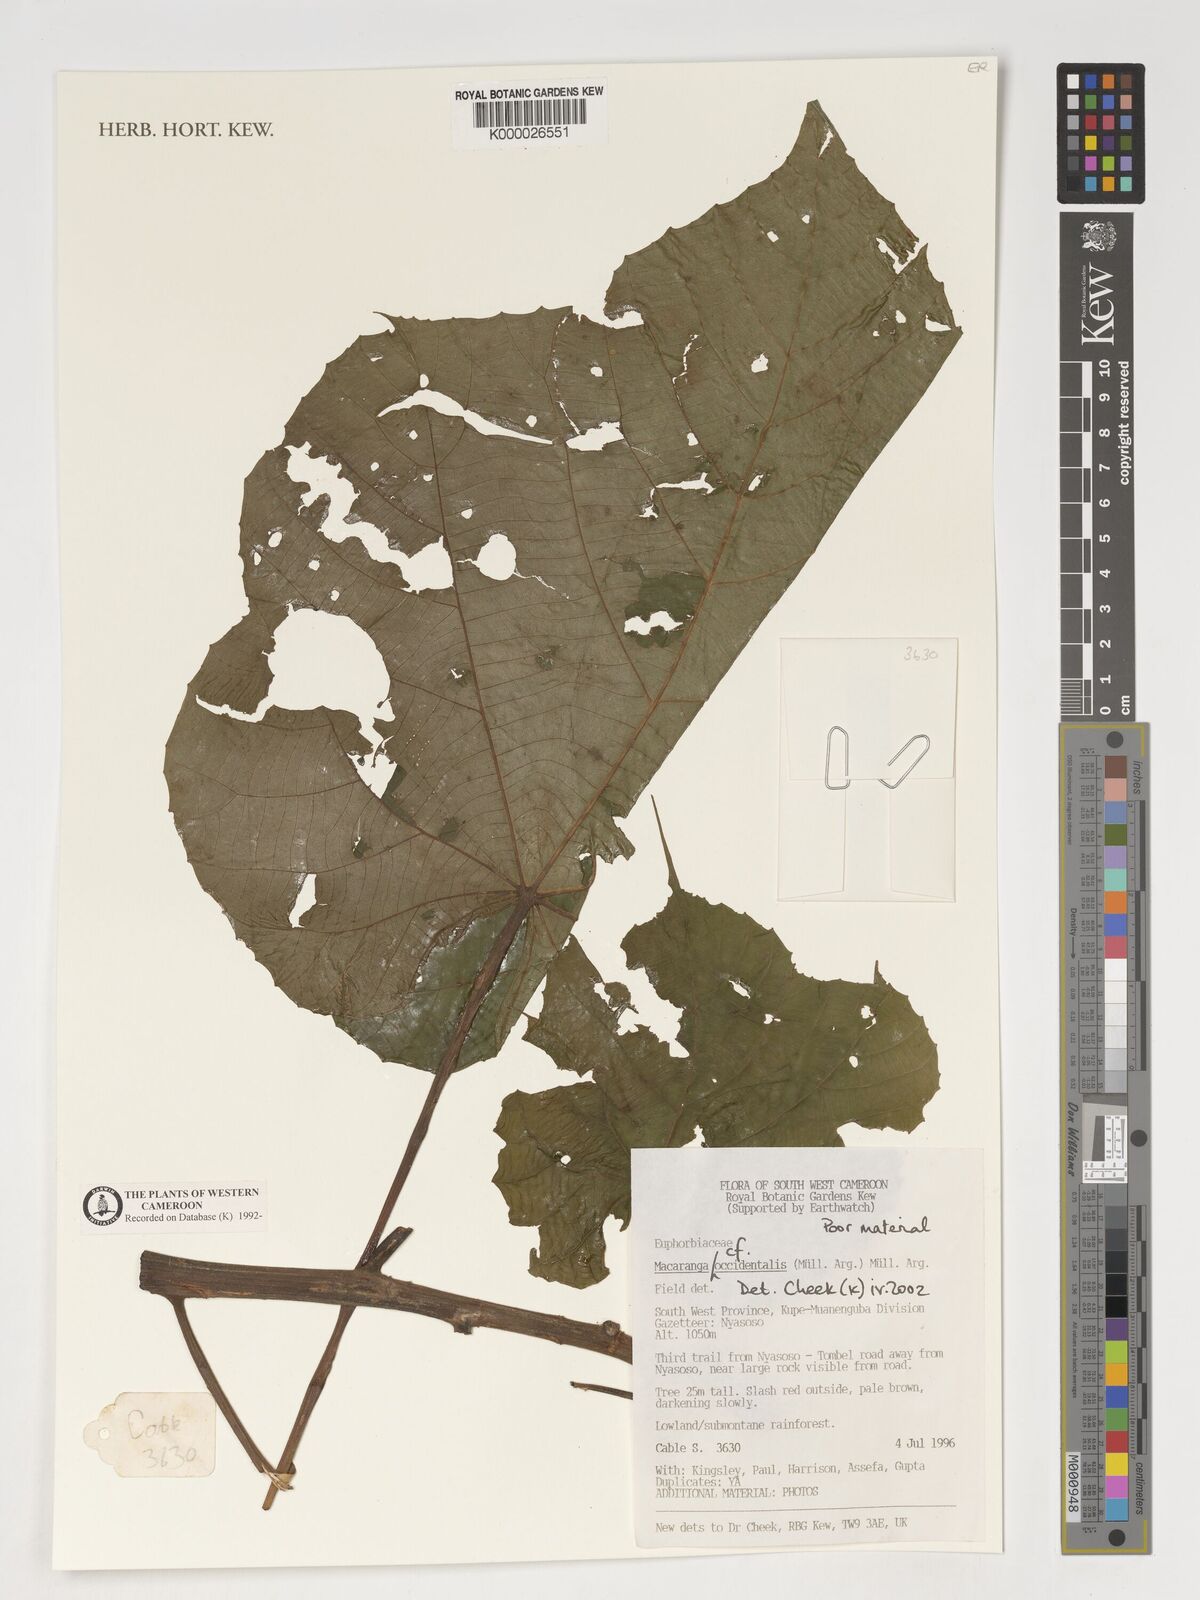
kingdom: Plantae
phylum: Tracheophyta
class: Magnoliopsida
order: Malpighiales
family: Euphorbiaceae
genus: Macaranga
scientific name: Macaranga
